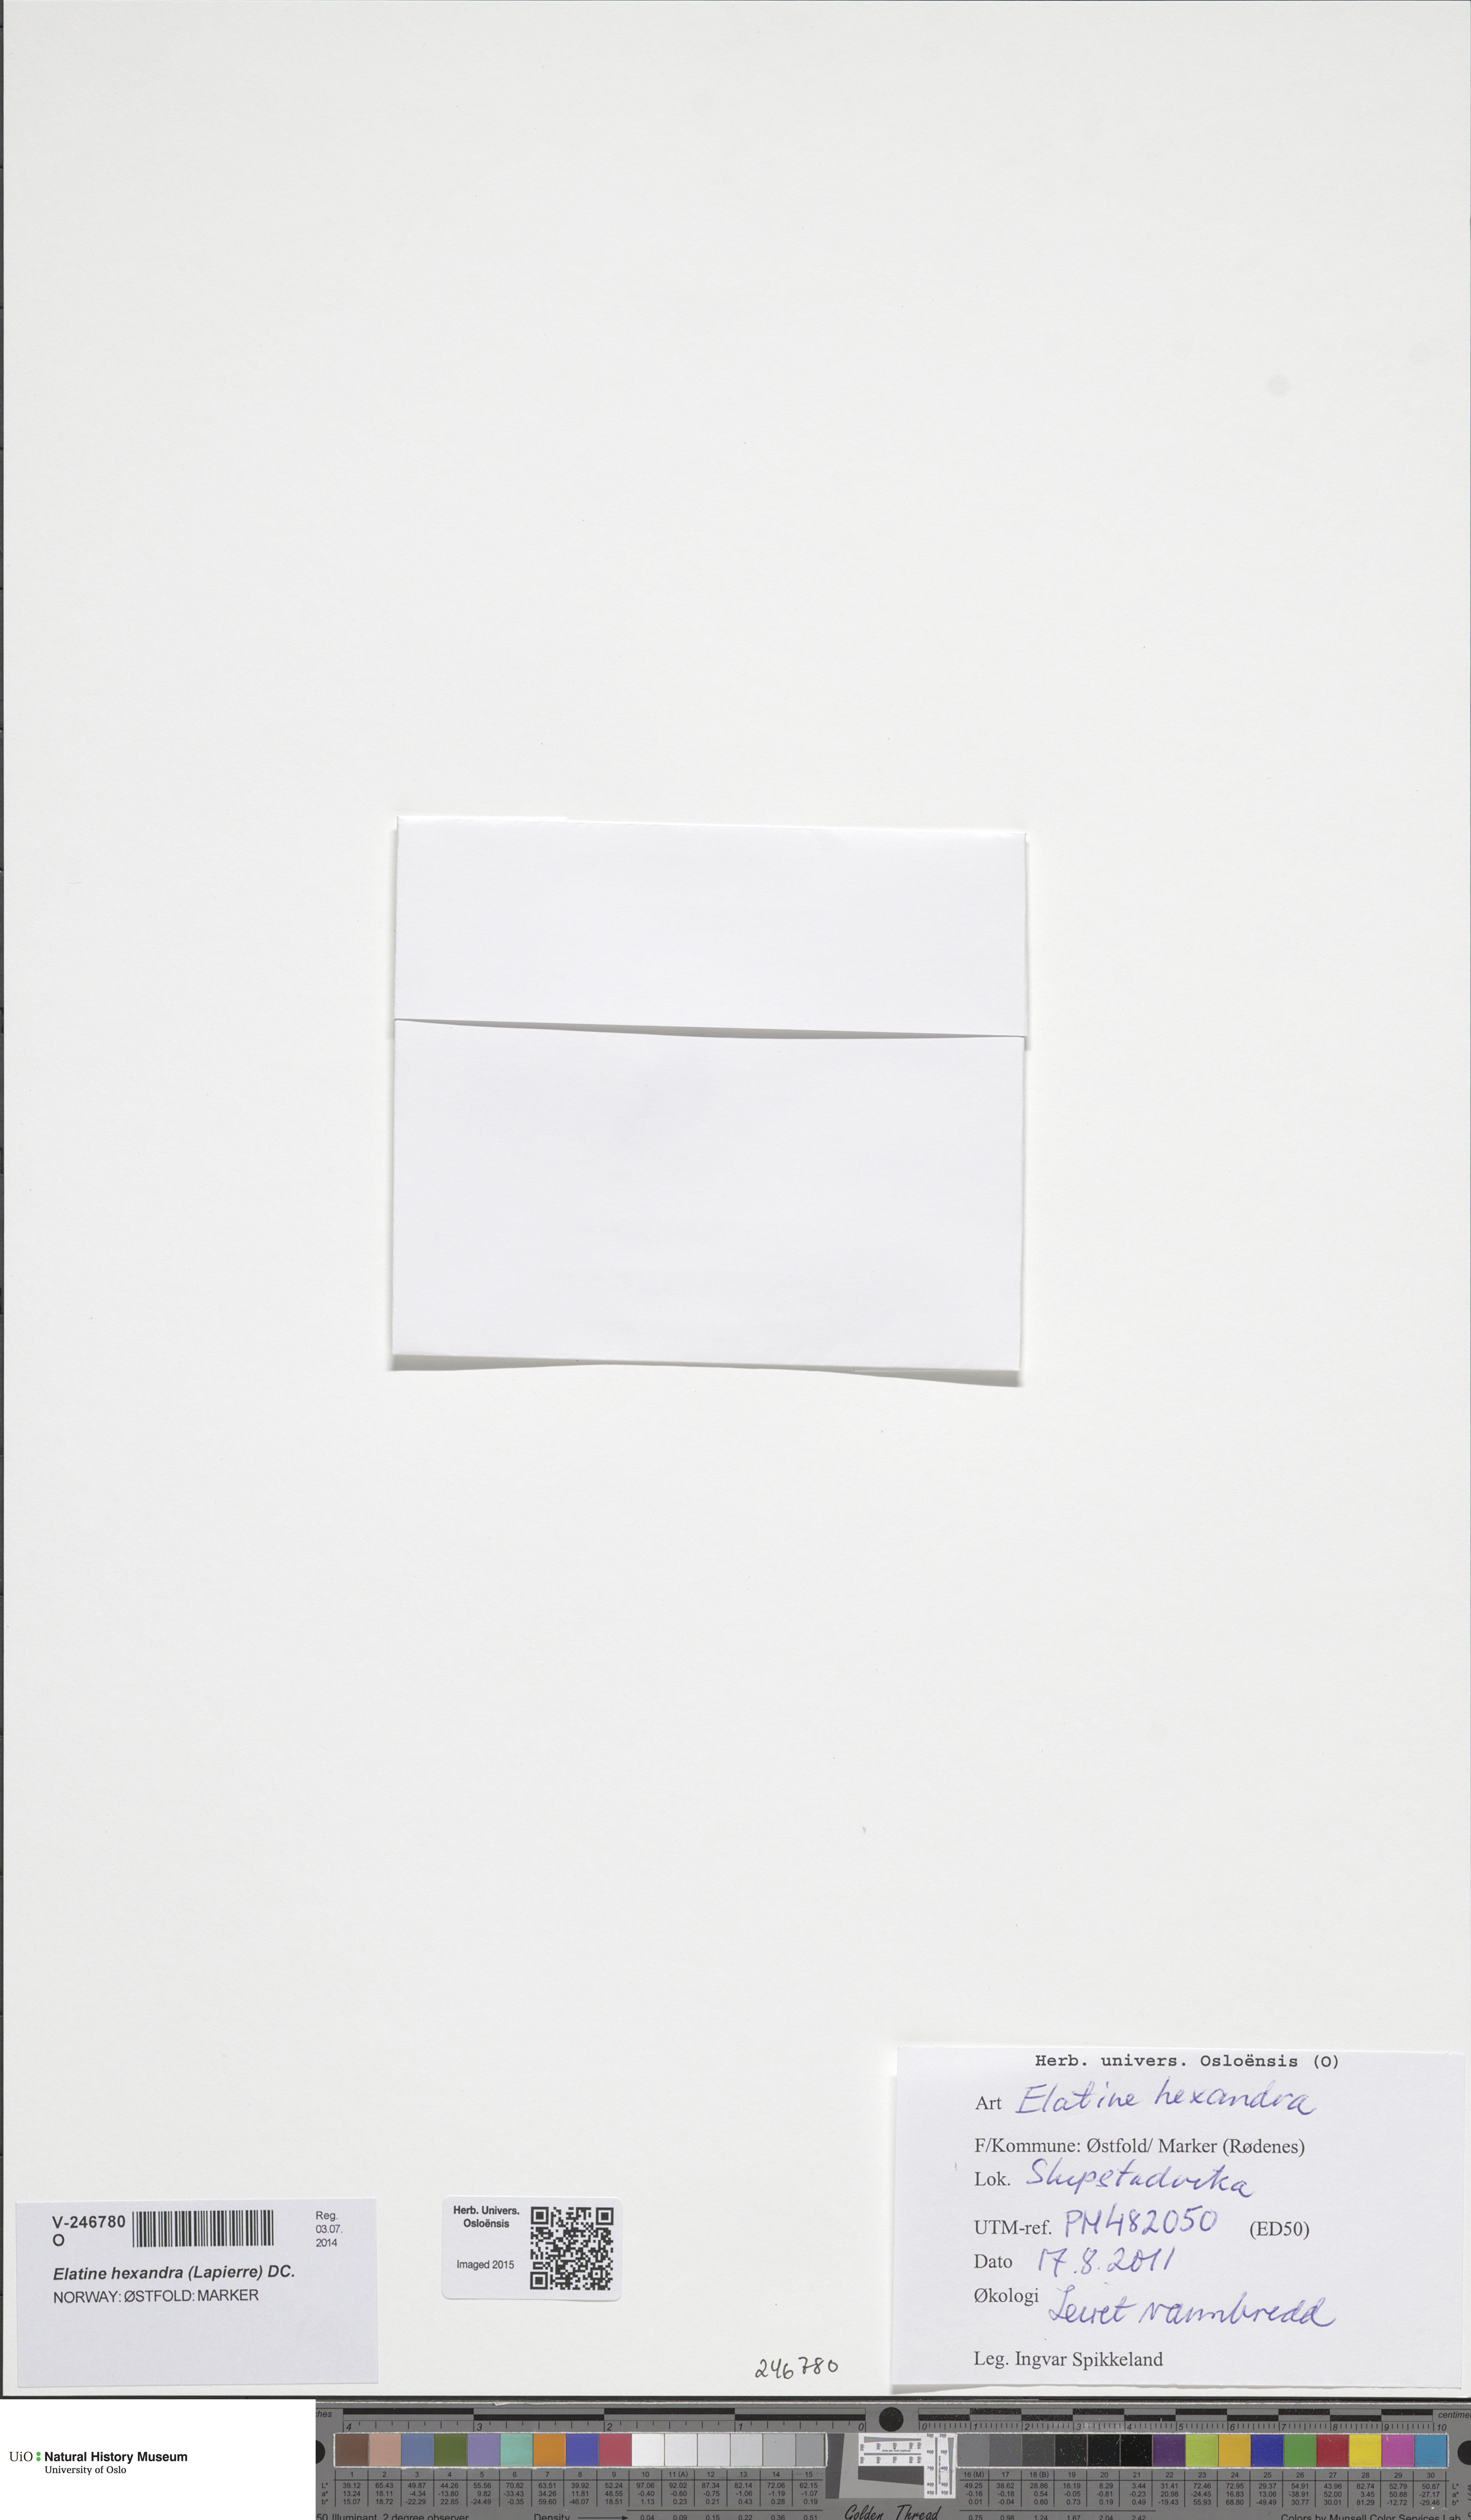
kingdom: Plantae
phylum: Tracheophyta
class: Magnoliopsida
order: Malpighiales
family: Elatinaceae
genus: Elatine
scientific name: Elatine hexandra
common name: Six-stamened waterwort
